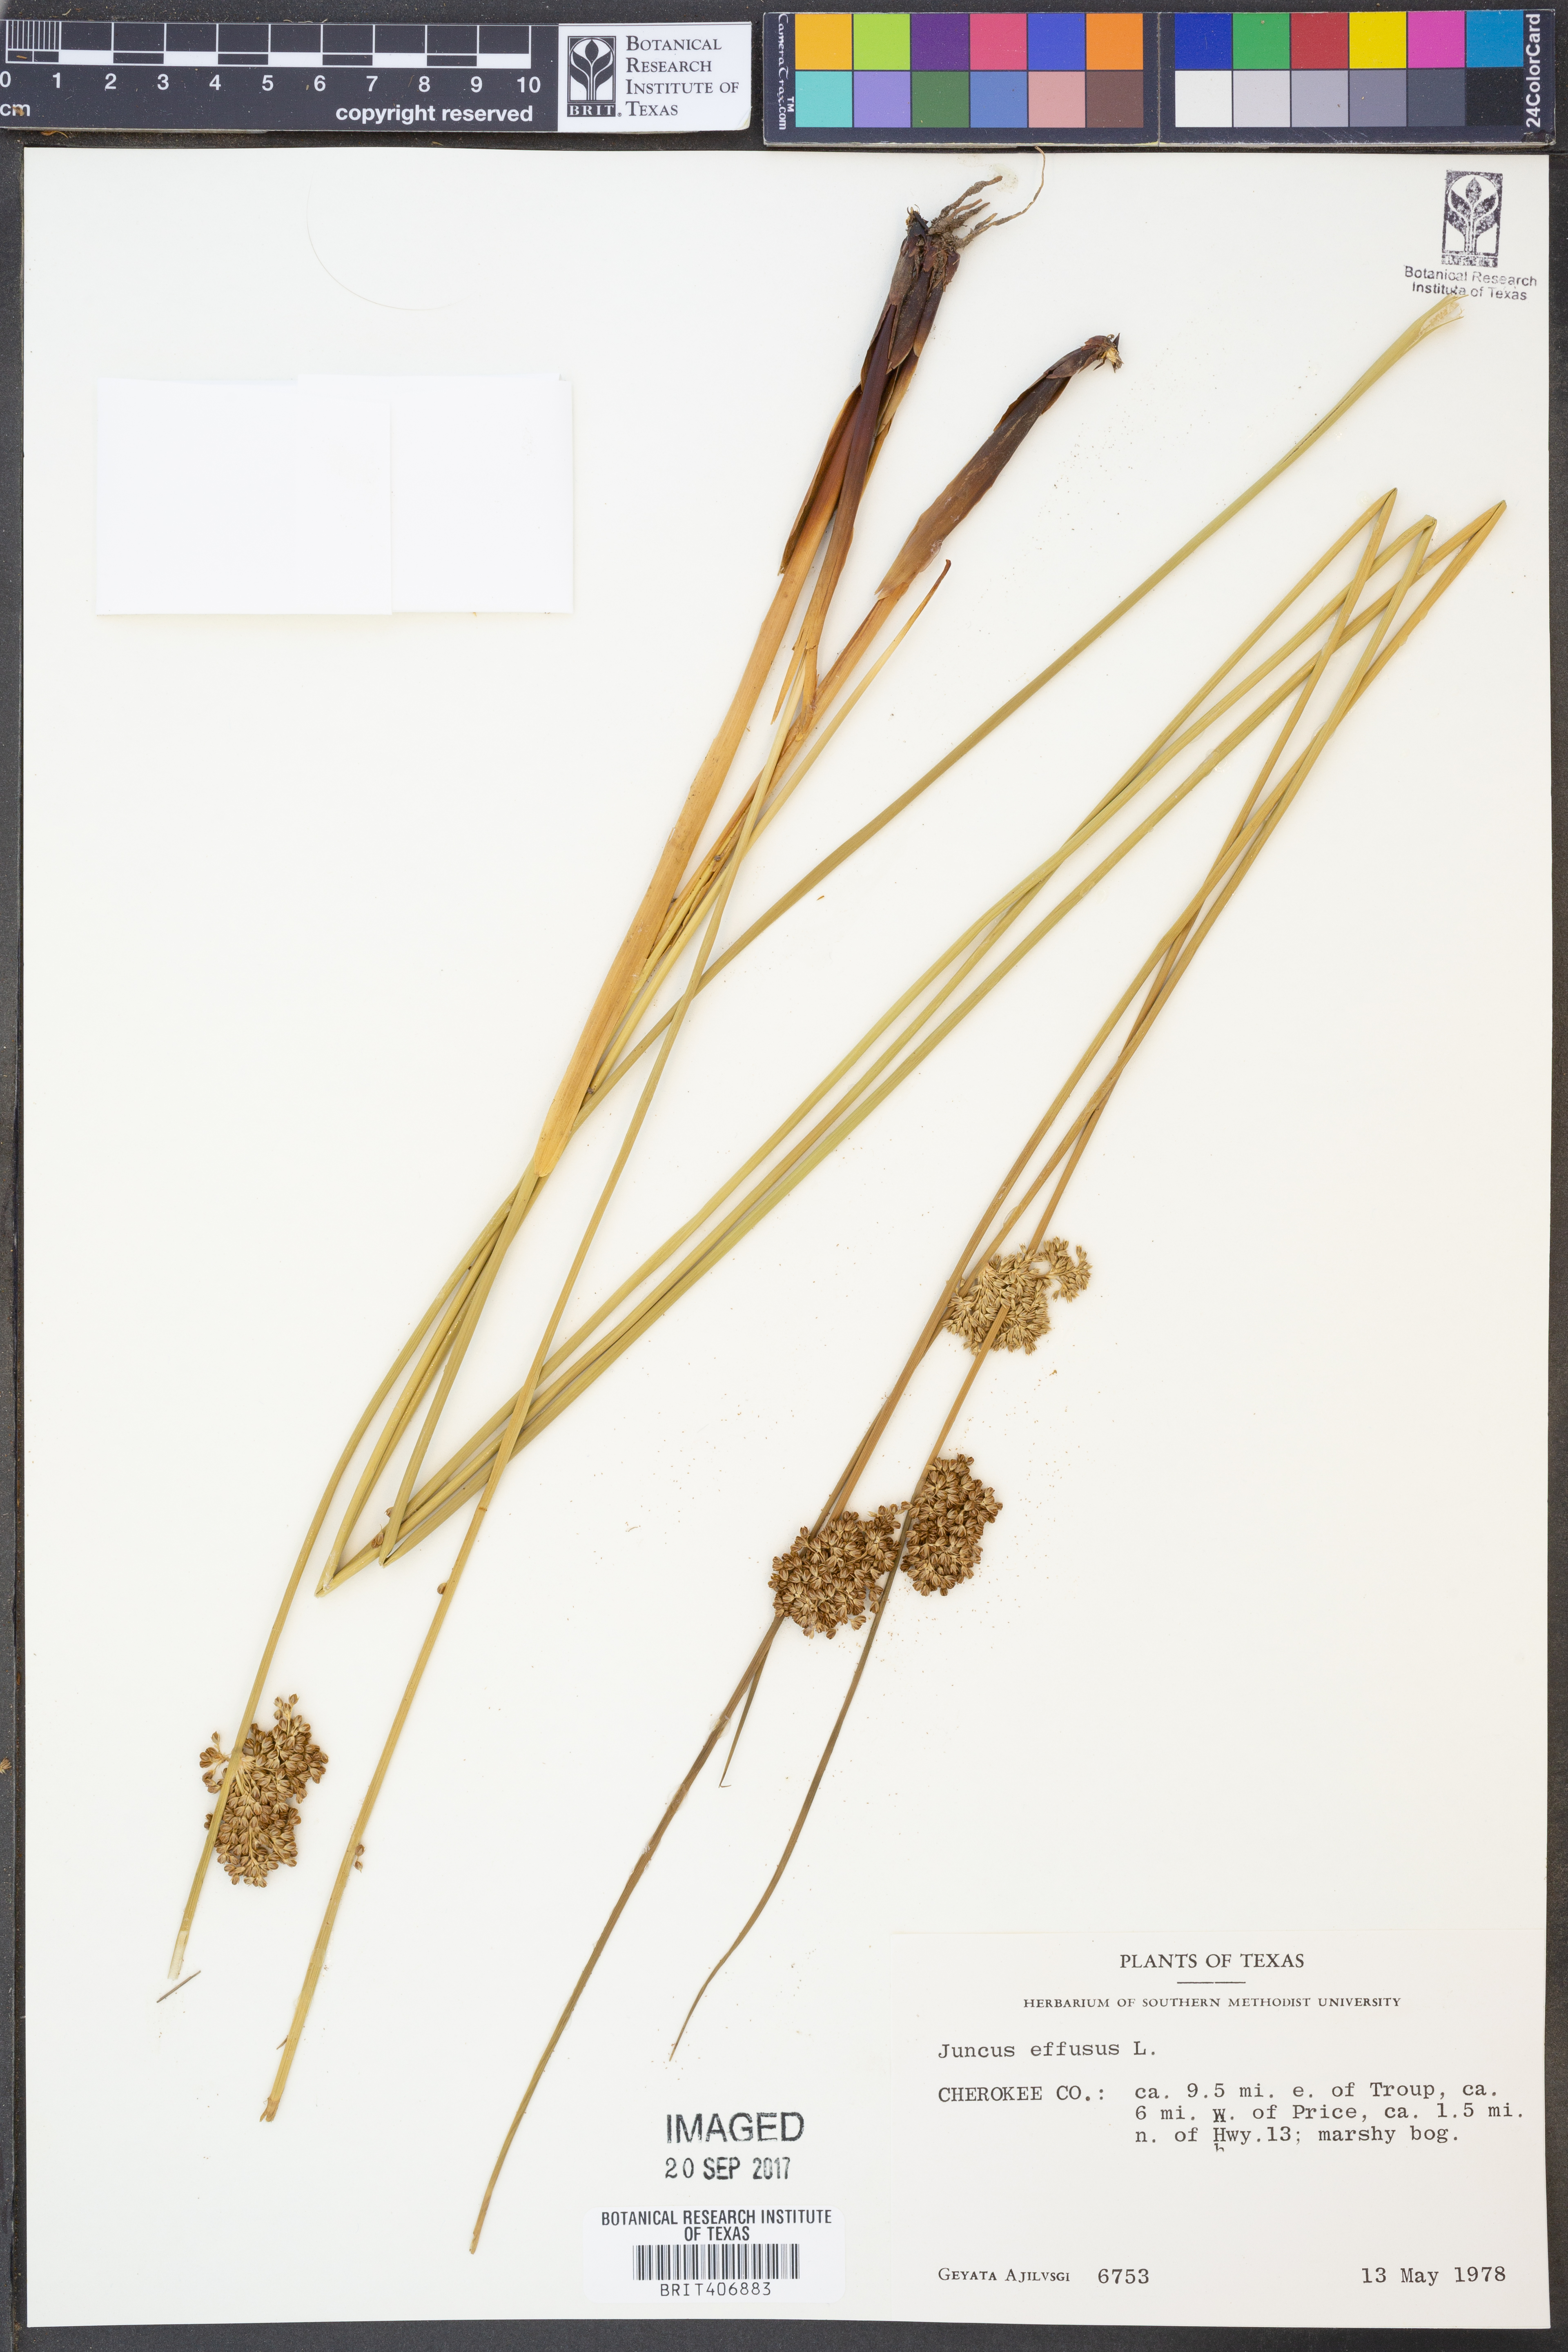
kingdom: Plantae
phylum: Tracheophyta
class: Liliopsida
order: Poales
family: Juncaceae
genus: Juncus
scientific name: Juncus effusus
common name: Soft rush
